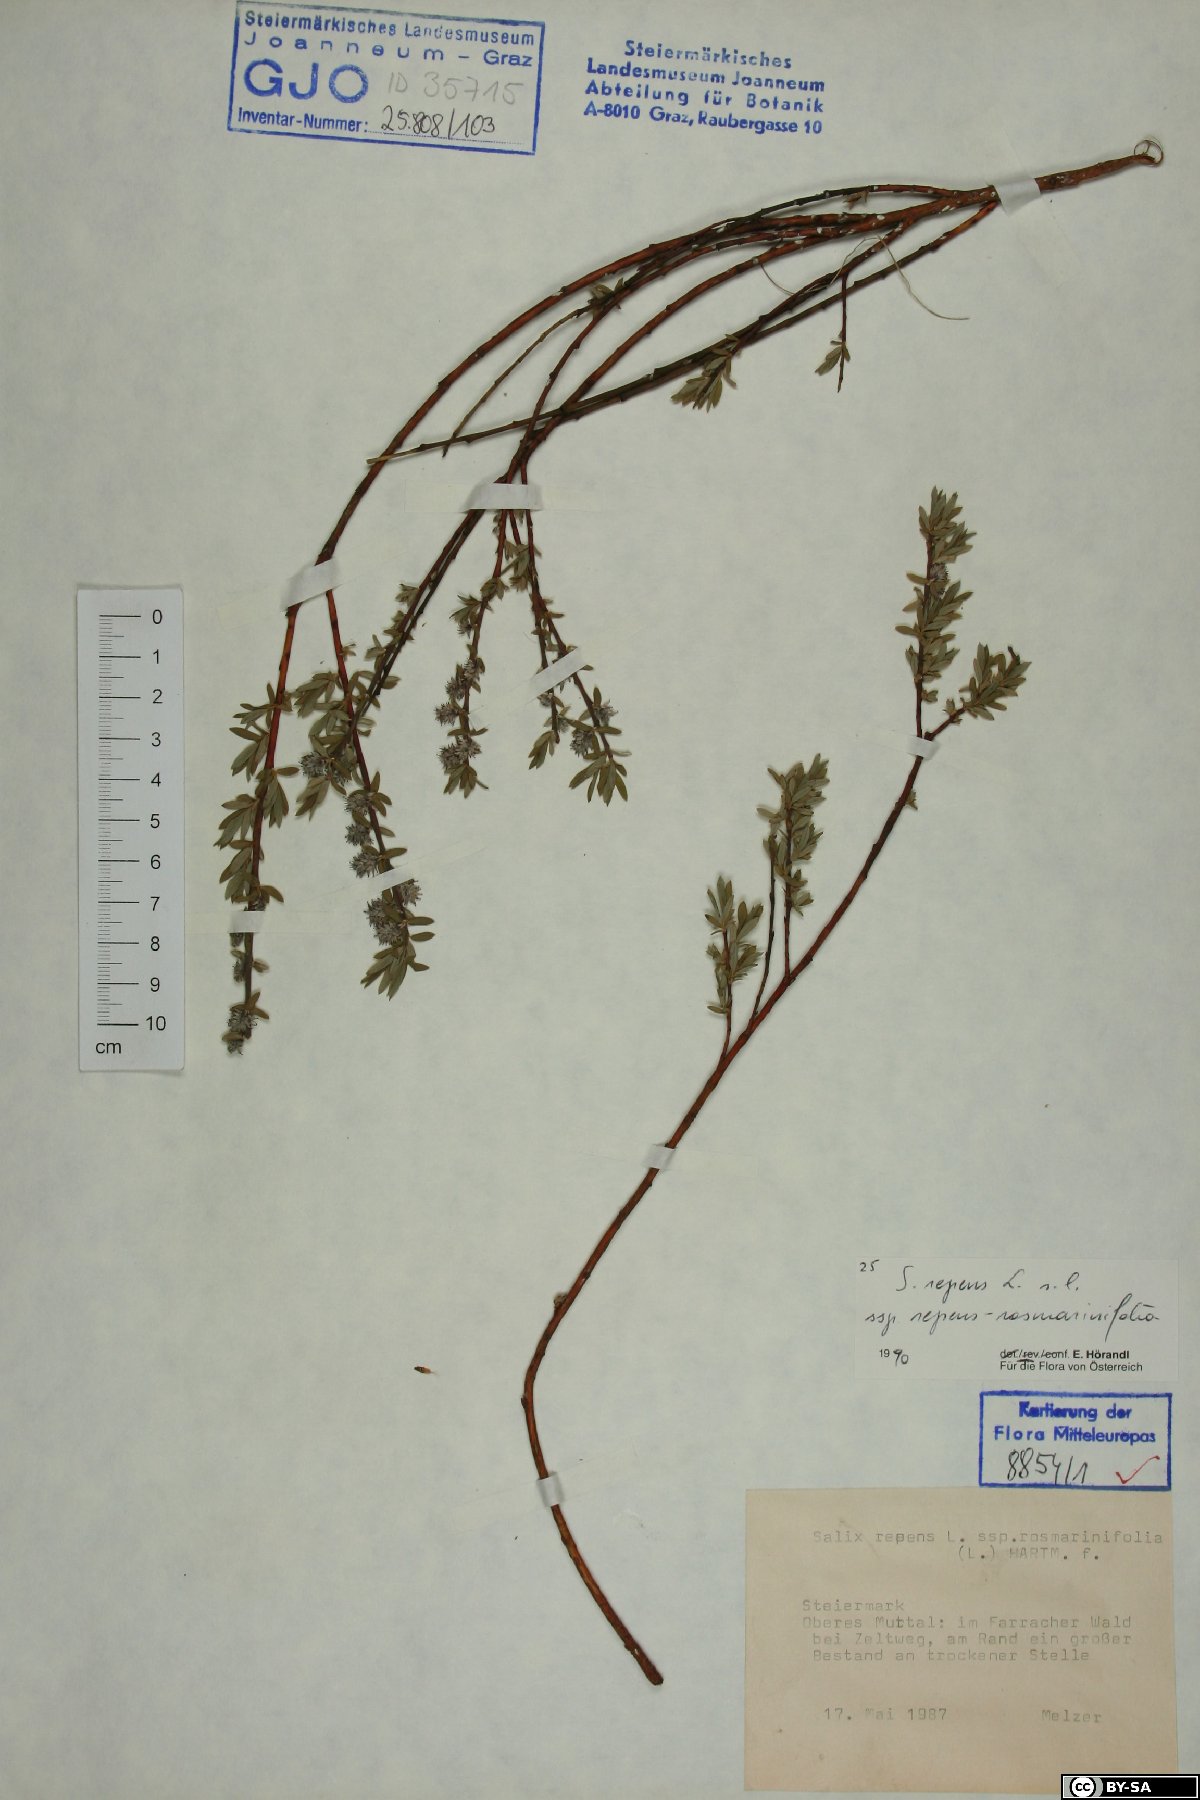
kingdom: Plantae
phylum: Tracheophyta
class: Magnoliopsida
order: Malpighiales
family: Salicaceae
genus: Salix
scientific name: Salix repens
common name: Creeping willow
